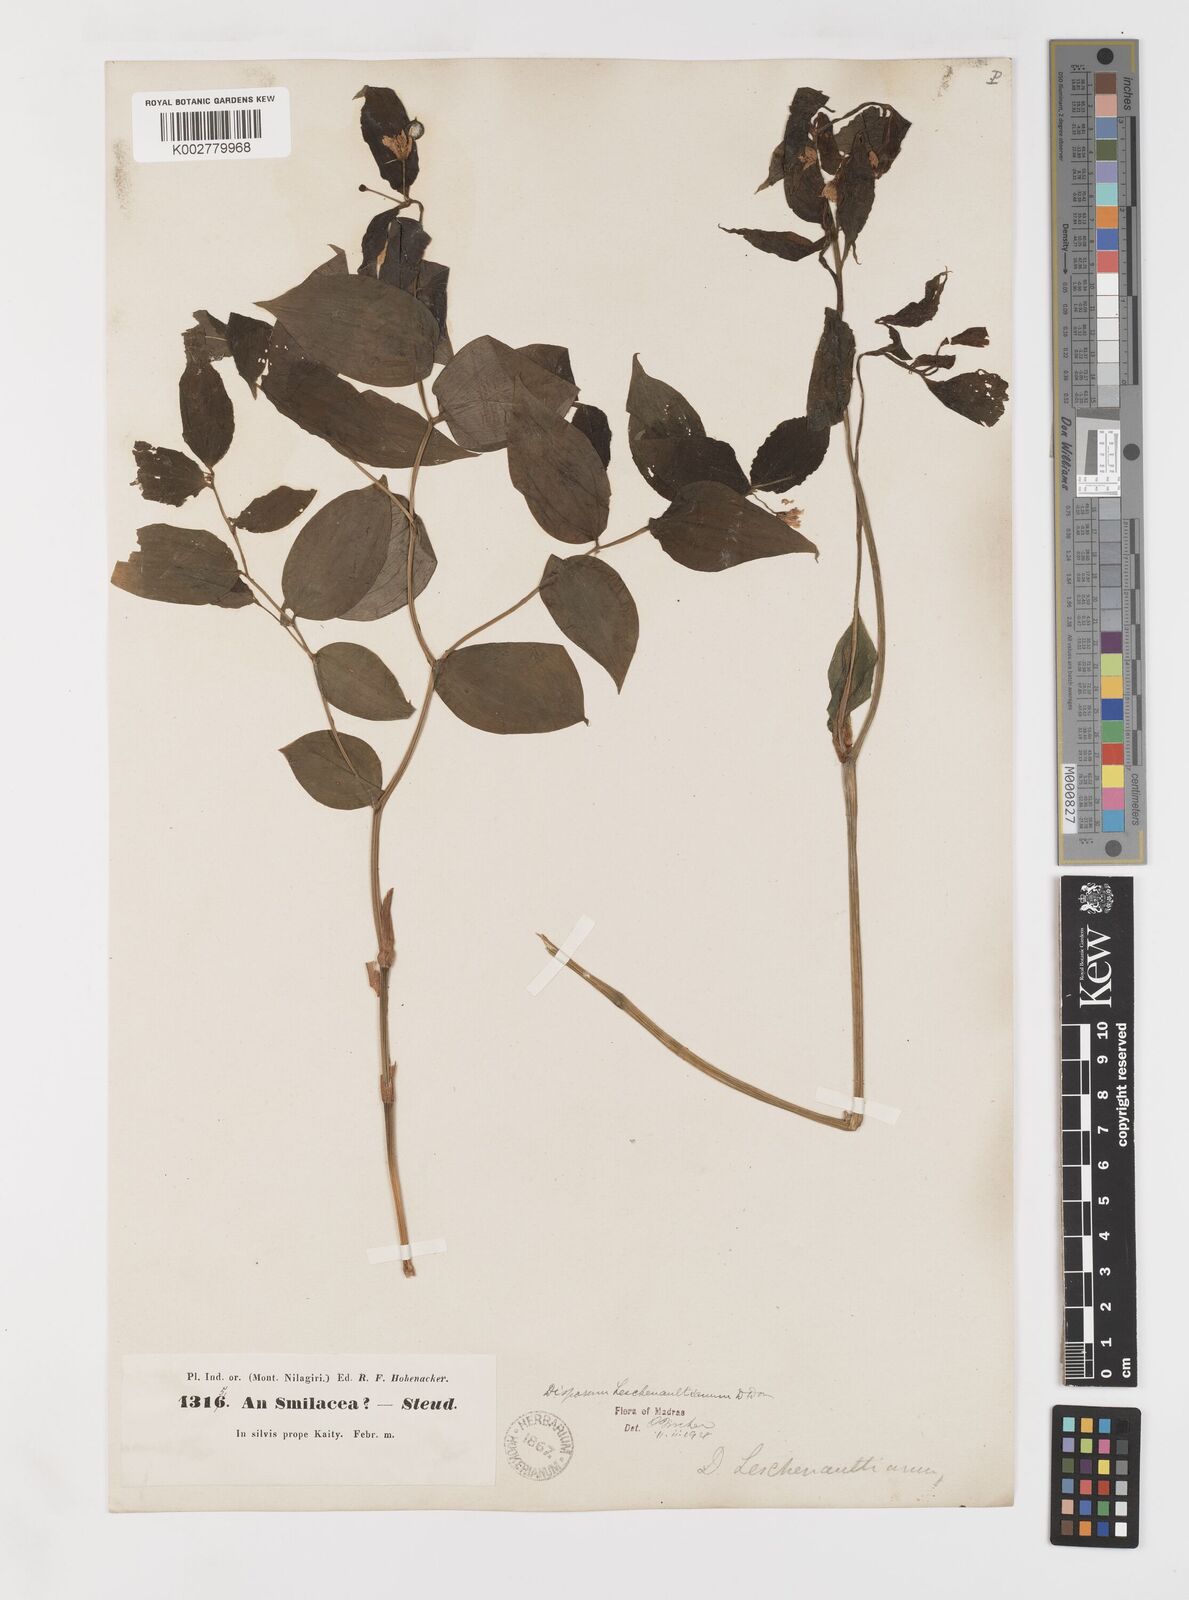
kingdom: Plantae
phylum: Tracheophyta
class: Liliopsida
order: Liliales
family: Colchicaceae
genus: Disporum
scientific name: Disporum cantoniense
